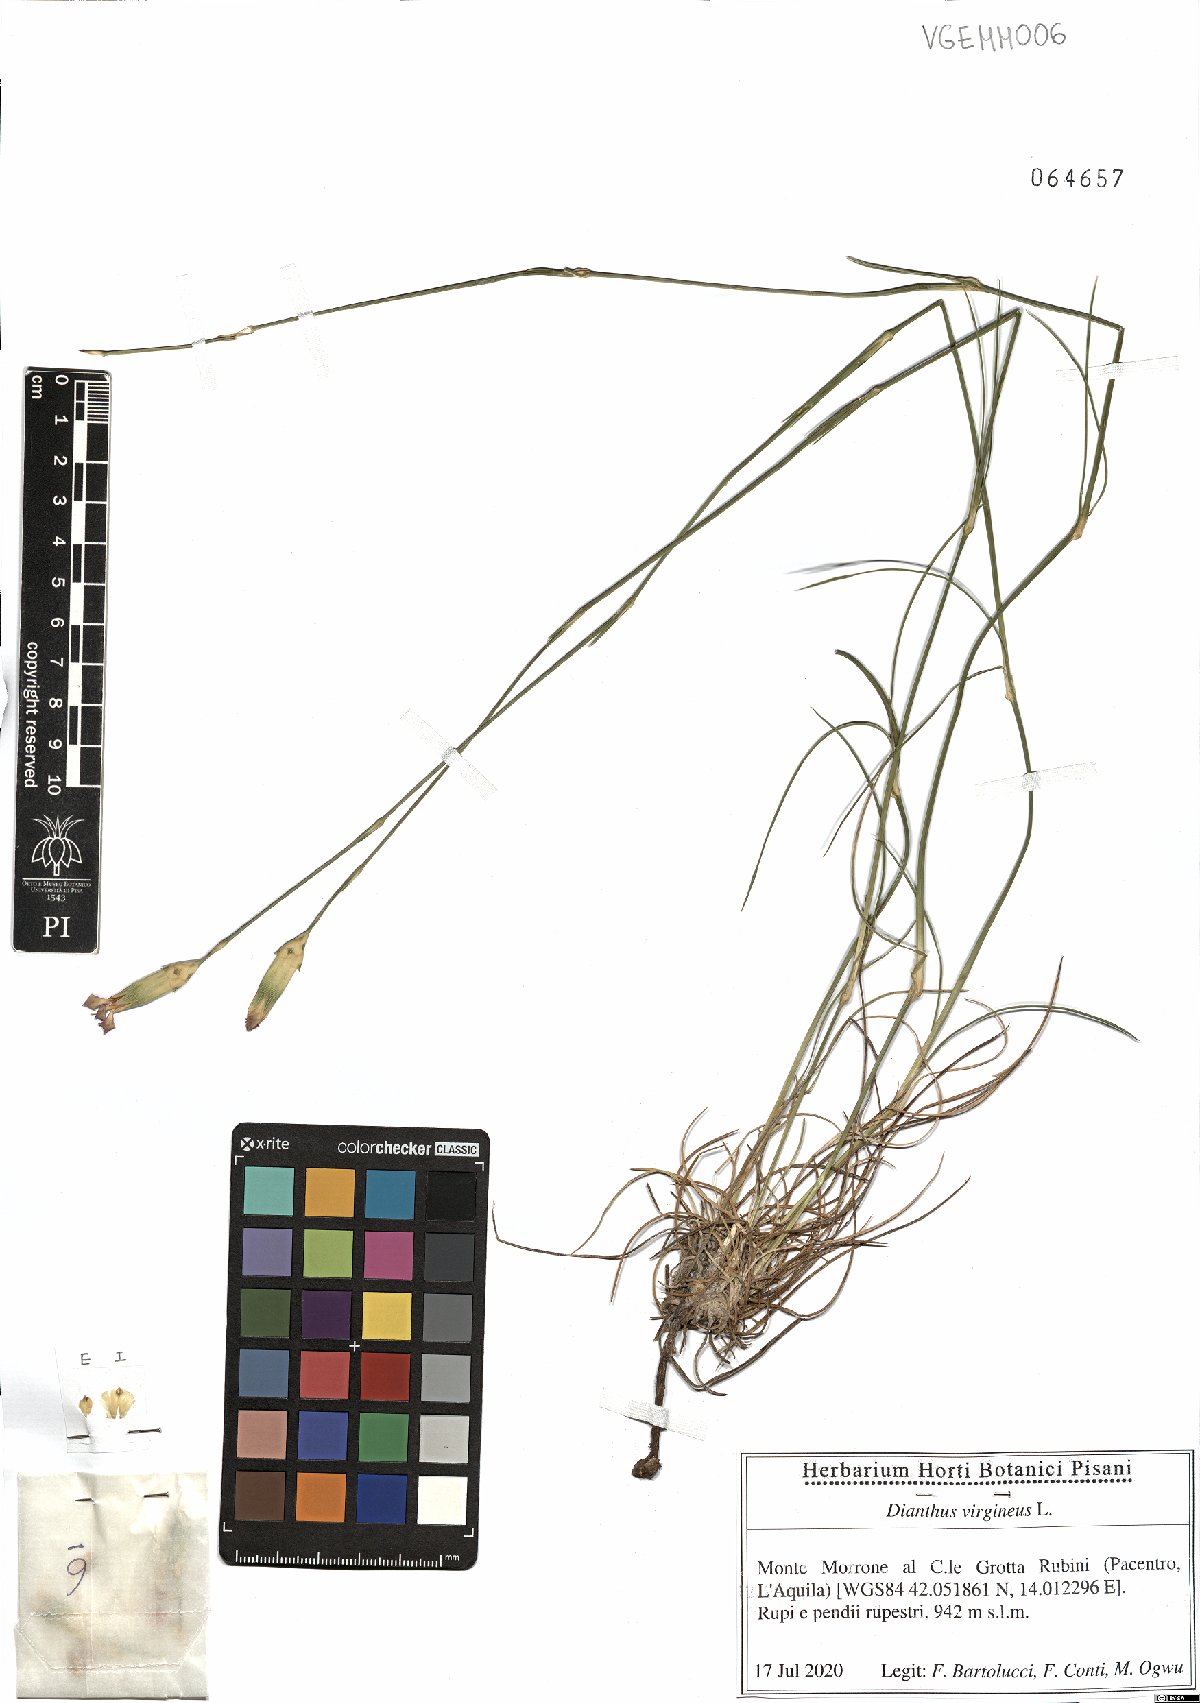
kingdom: Plantae
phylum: Tracheophyta
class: Magnoliopsida
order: Caryophyllales
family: Caryophyllaceae
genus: Dianthus
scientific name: Dianthus virgineus
